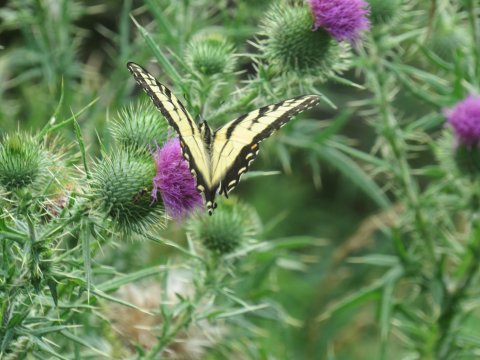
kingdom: Animalia
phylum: Arthropoda
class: Insecta
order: Lepidoptera
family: Papilionidae
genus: Pterourus
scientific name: Pterourus glaucus
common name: Eastern Tiger Swallowtail
